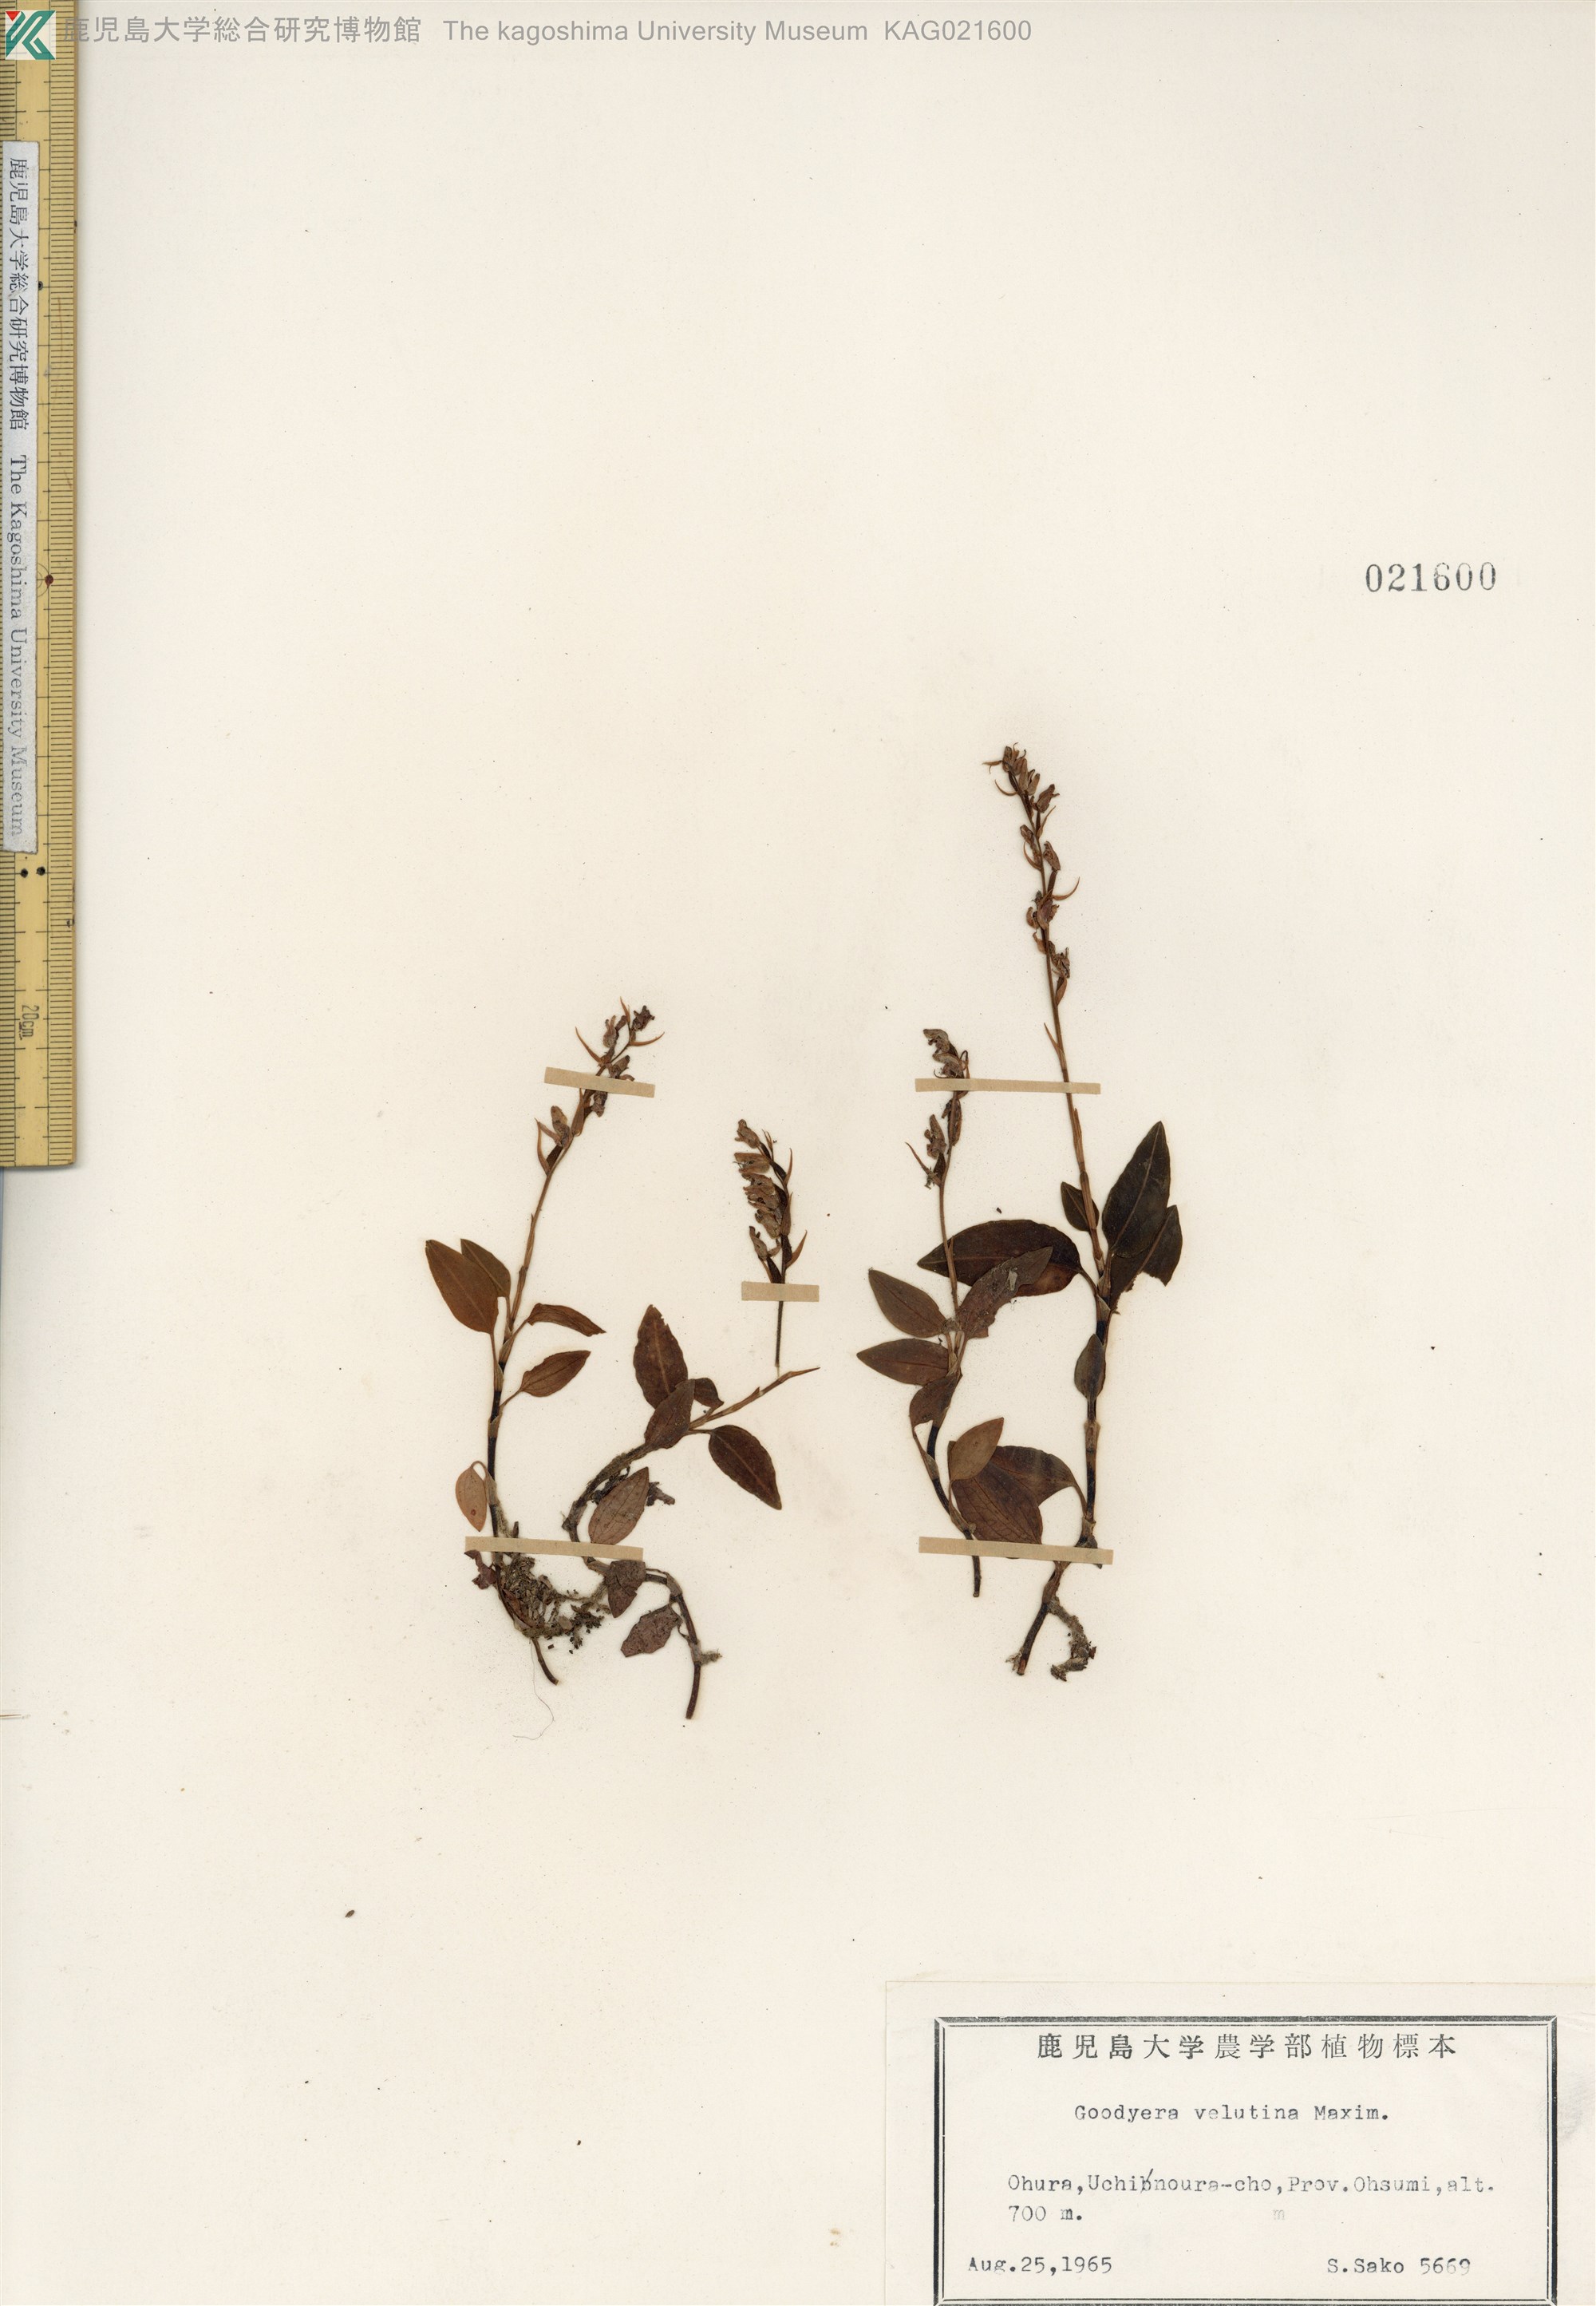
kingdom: Plantae
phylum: Tracheophyta
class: Liliopsida
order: Asparagales
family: Orchidaceae
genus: Goodyera
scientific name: Goodyera velutina
